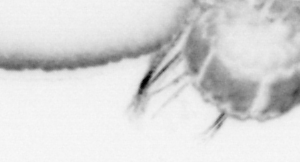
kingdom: Animalia
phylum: Annelida
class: Polychaeta
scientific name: Polychaeta
